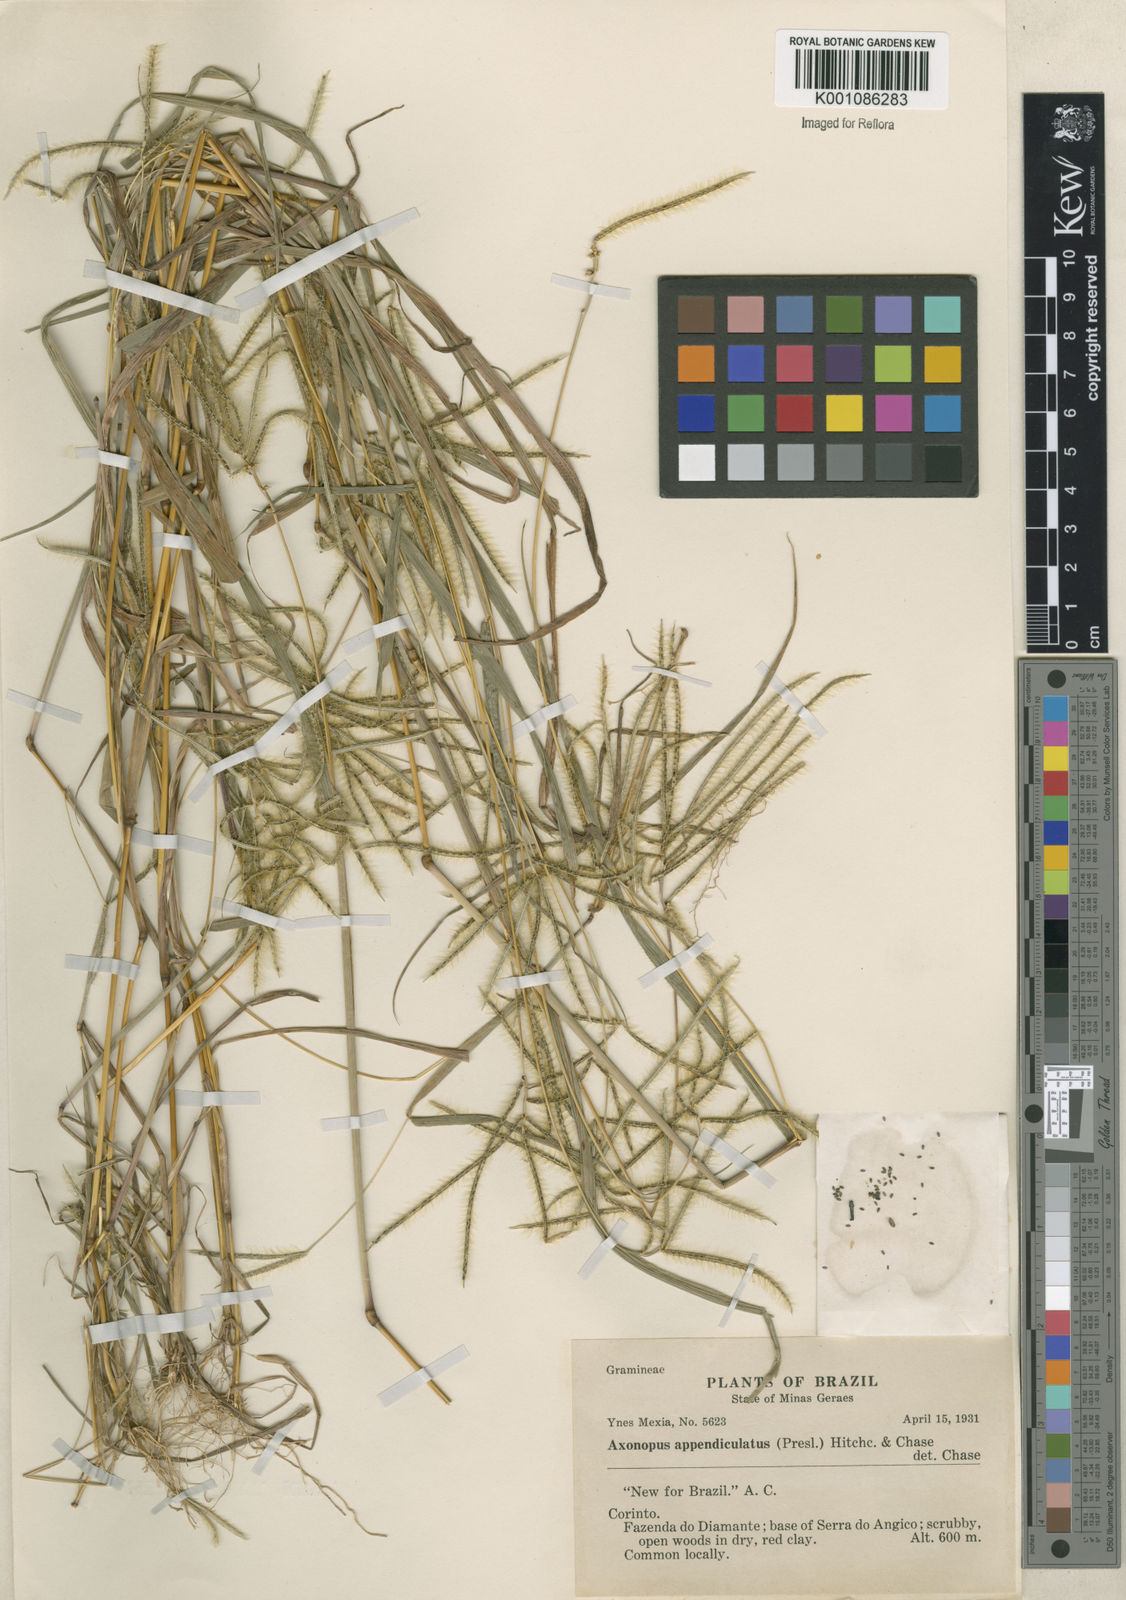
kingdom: Plantae
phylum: Tracheophyta
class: Liliopsida
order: Poales
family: Poaceae
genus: Axonopus
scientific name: Axonopus chrysoblepharis
